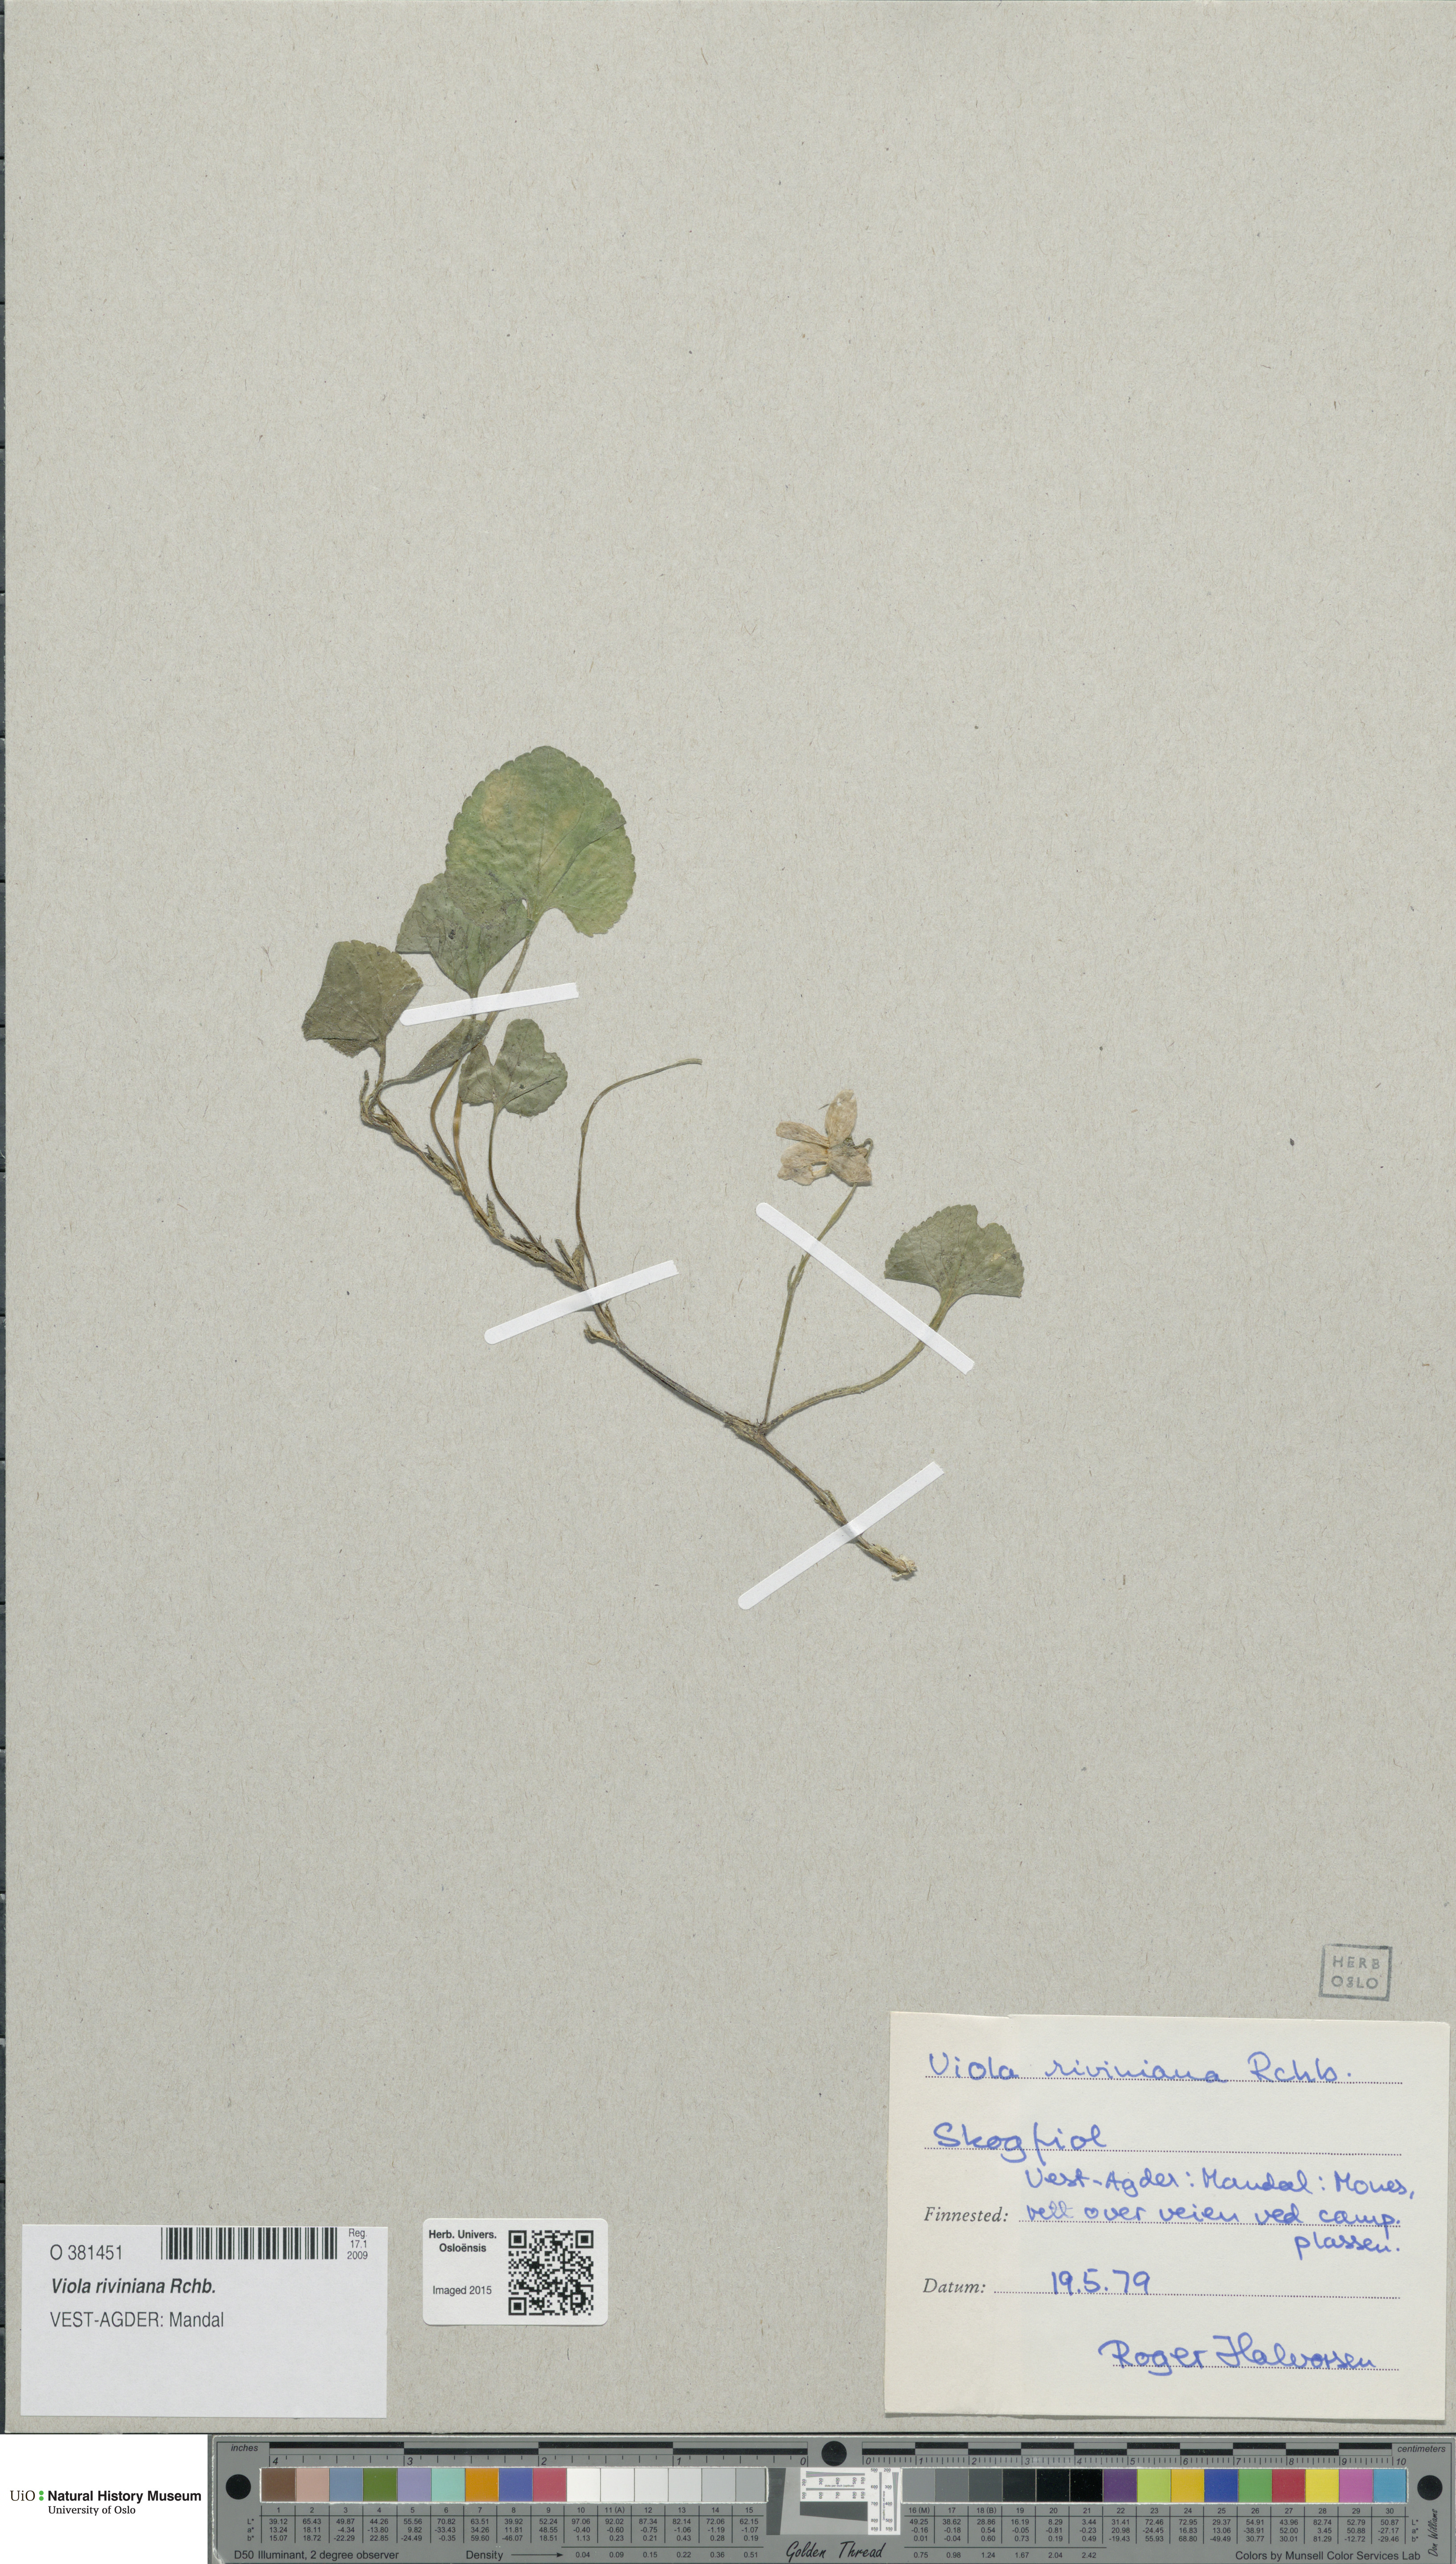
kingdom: Plantae
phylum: Tracheophyta
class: Magnoliopsida
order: Malpighiales
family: Violaceae
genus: Viola
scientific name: Viola riviniana
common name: Common dog-violet
